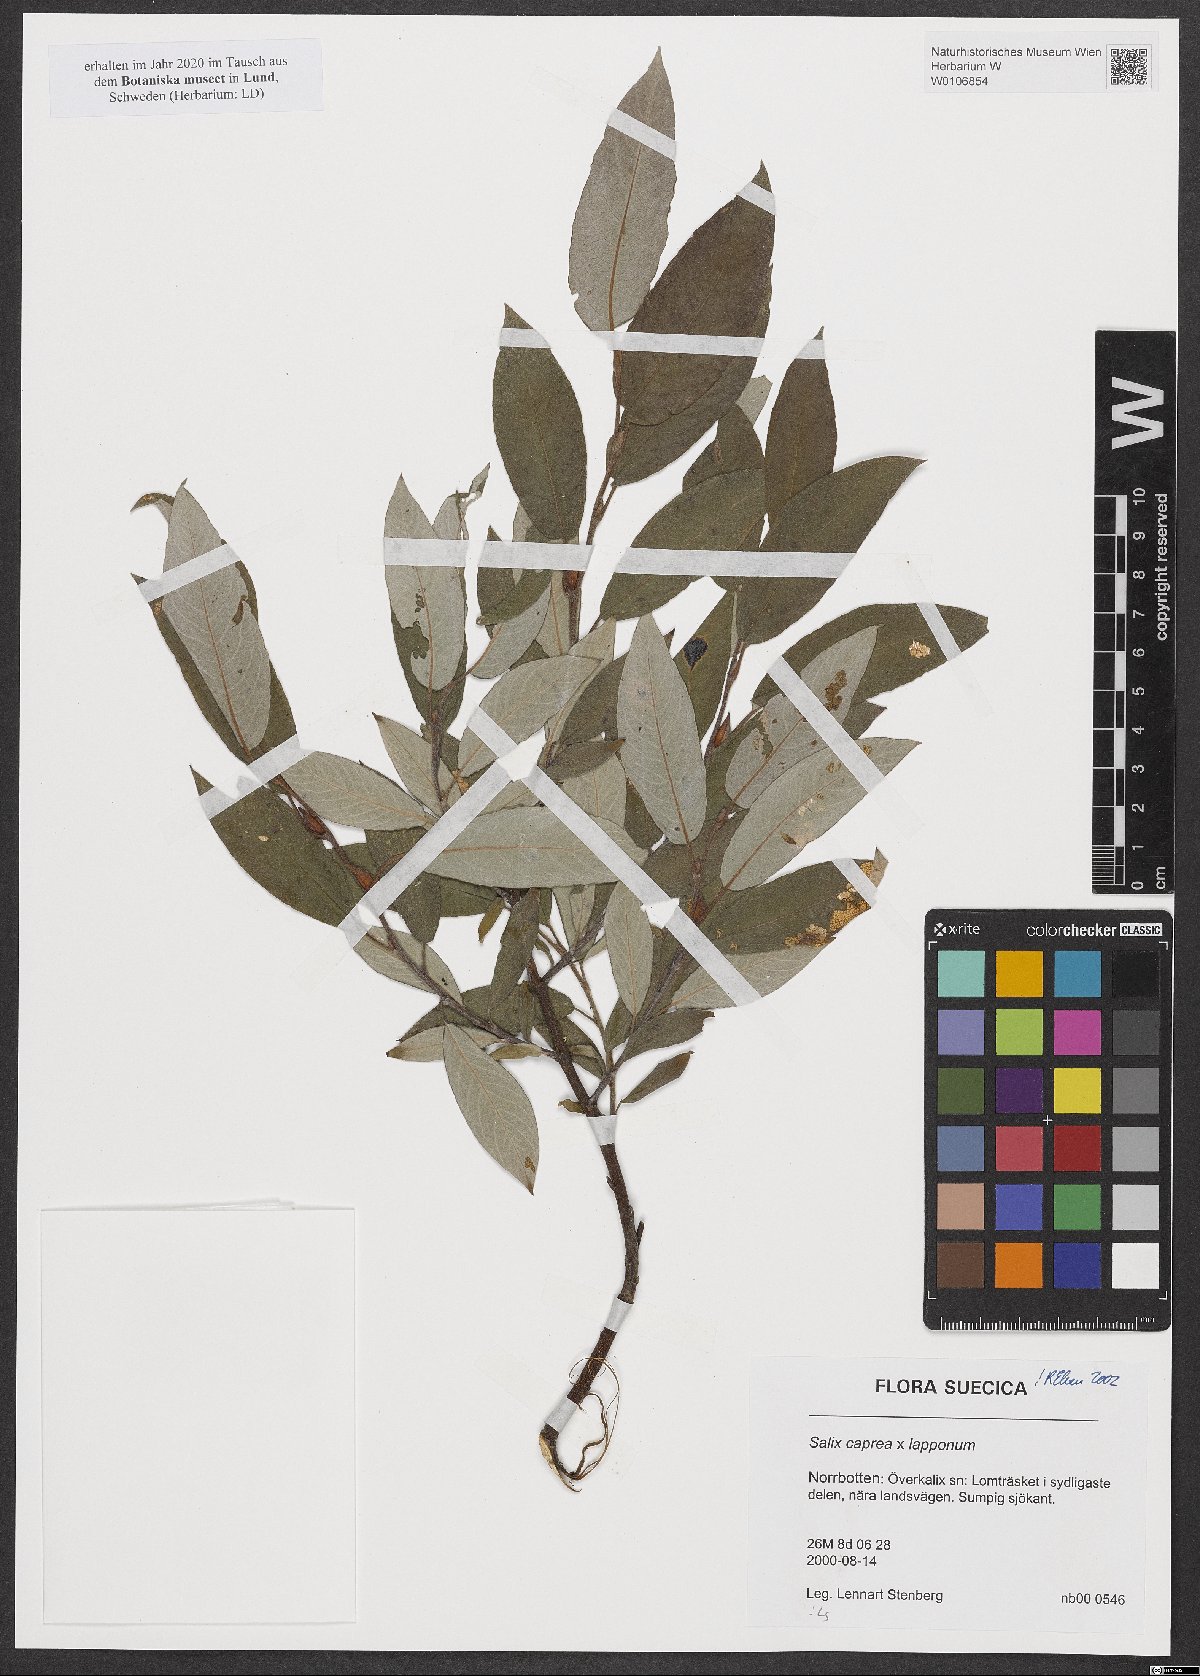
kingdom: Plantae
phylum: Tracheophyta
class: Magnoliopsida
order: Malpighiales
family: Salicaceae
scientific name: Salicaceae
